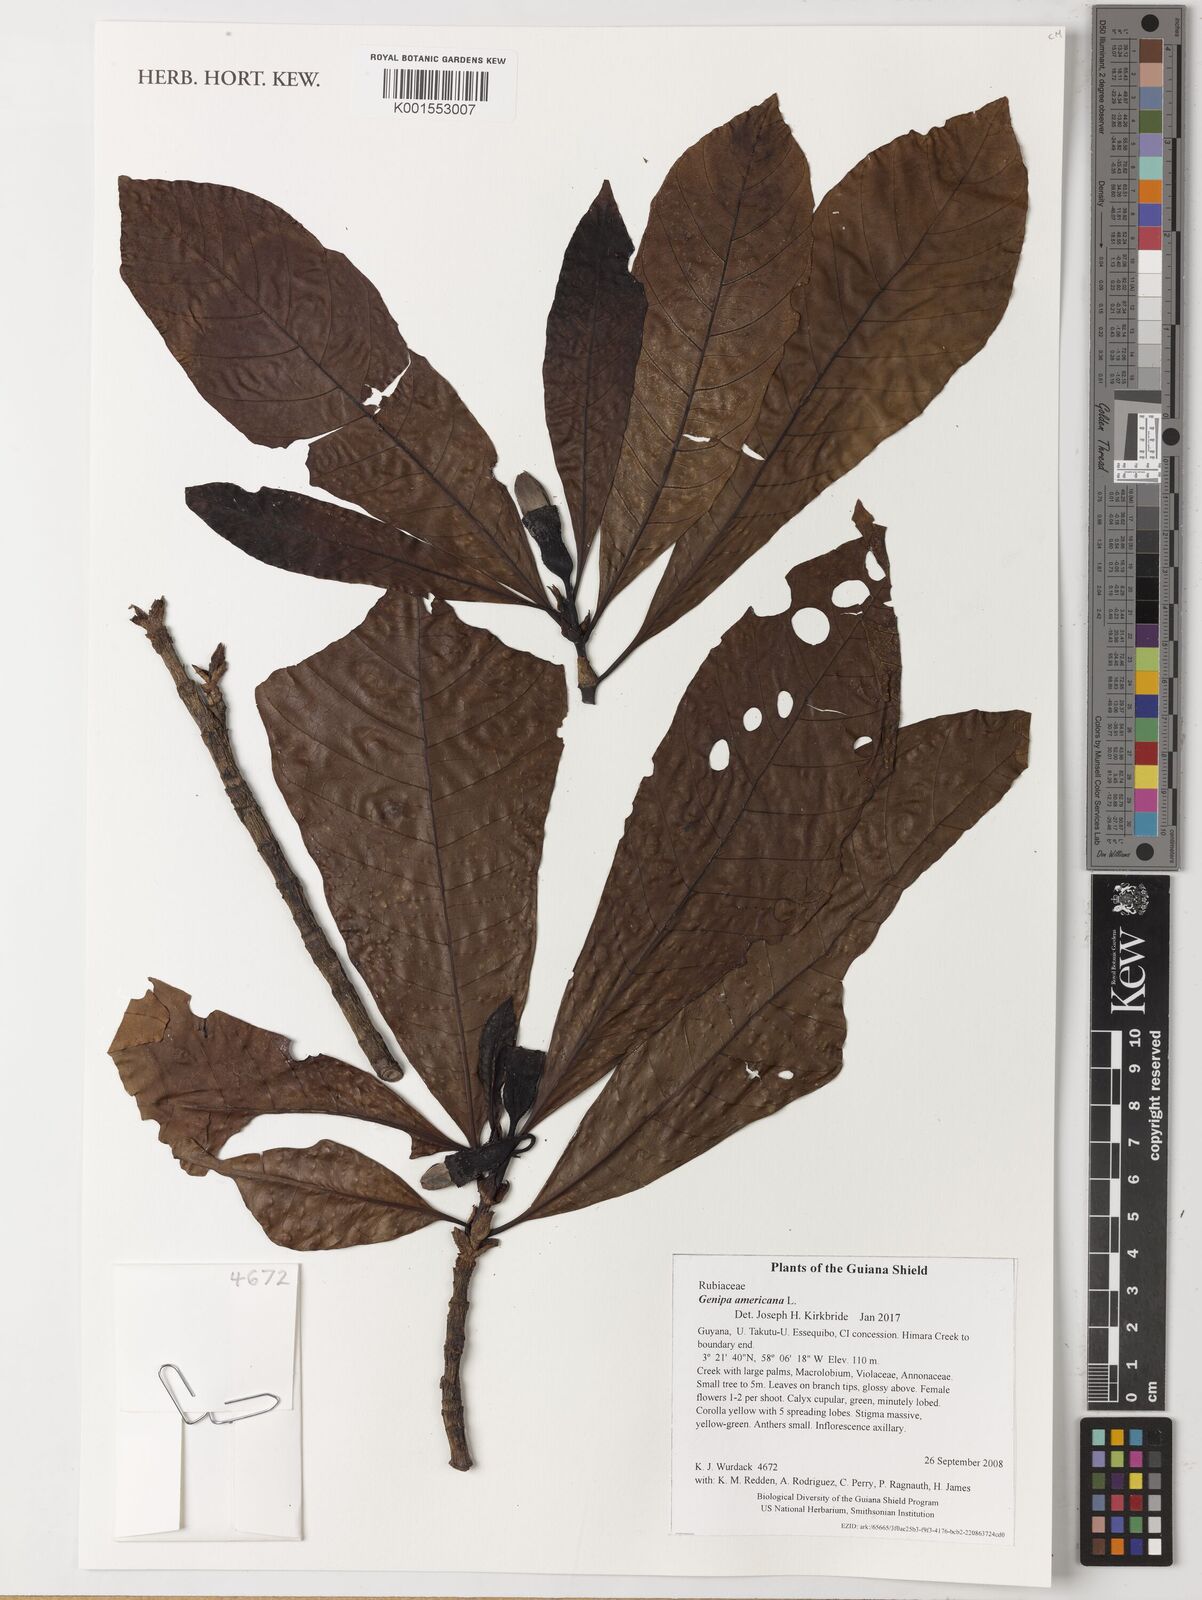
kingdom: Plantae
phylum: Tracheophyta
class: Magnoliopsida
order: Gentianales
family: Rubiaceae
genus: Genipa
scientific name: Genipa americana
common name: Genipap
